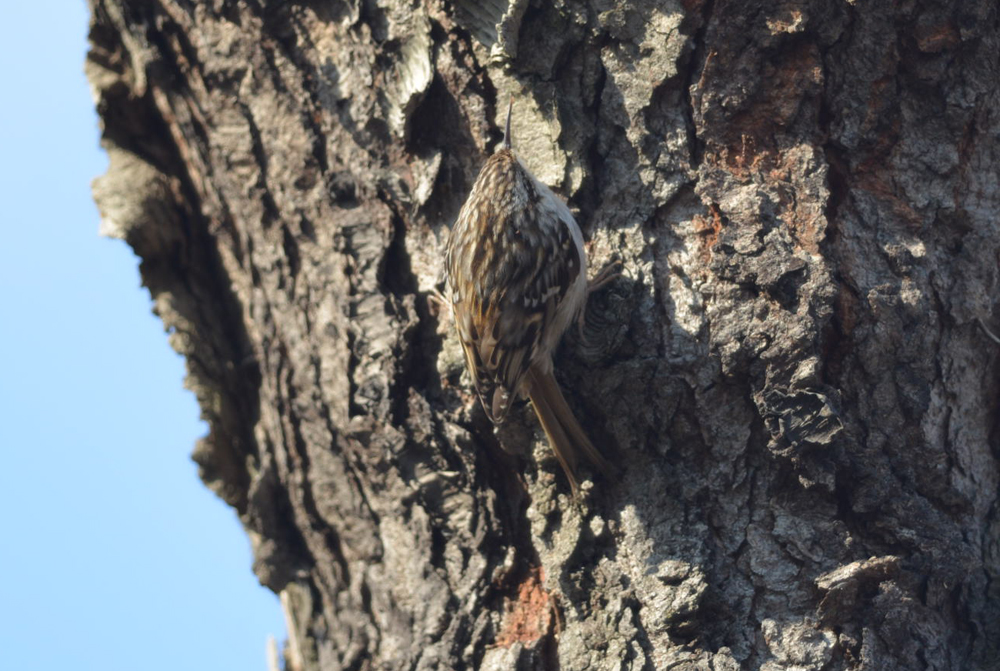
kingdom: Animalia
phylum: Chordata
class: Aves
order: Passeriformes
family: Certhiidae
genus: Certhia
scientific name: Certhia brachydactyla
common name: Short-toed treecreeper
